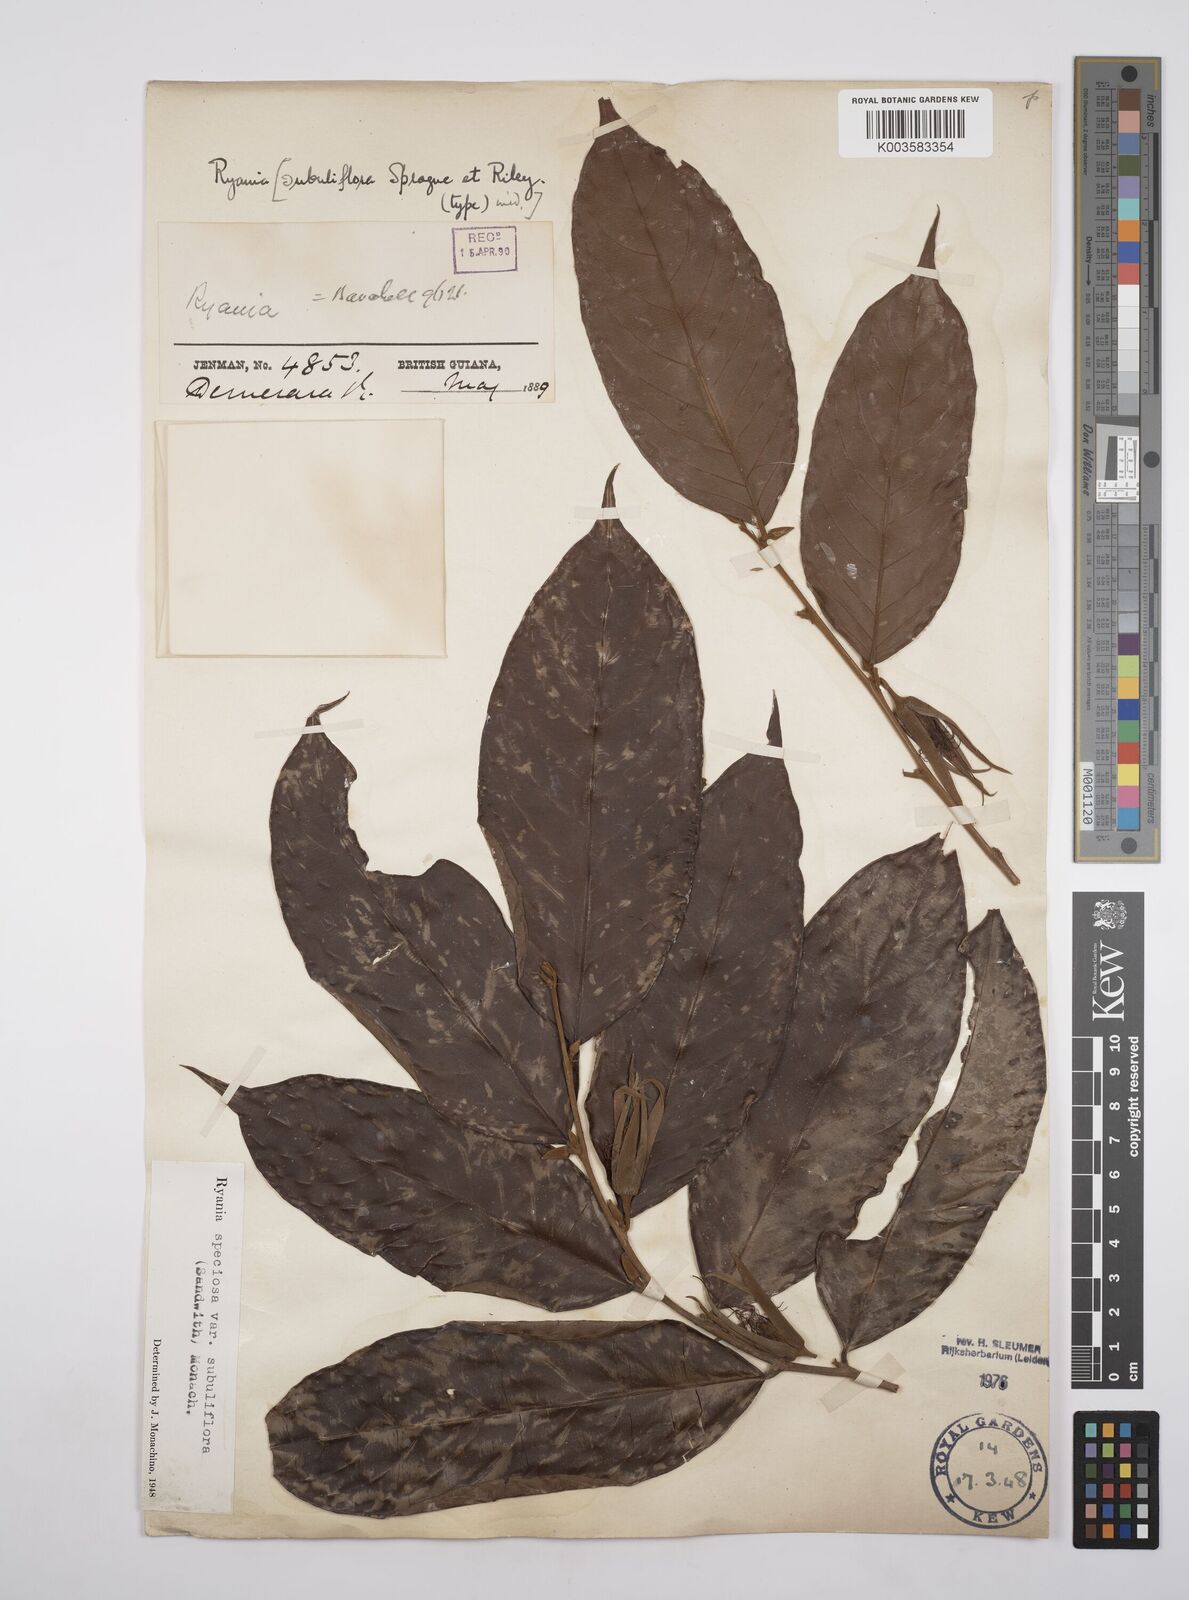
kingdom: Plantae
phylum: Tracheophyta
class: Magnoliopsida
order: Malpighiales
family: Salicaceae
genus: Ryania
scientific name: Ryania speciosa
